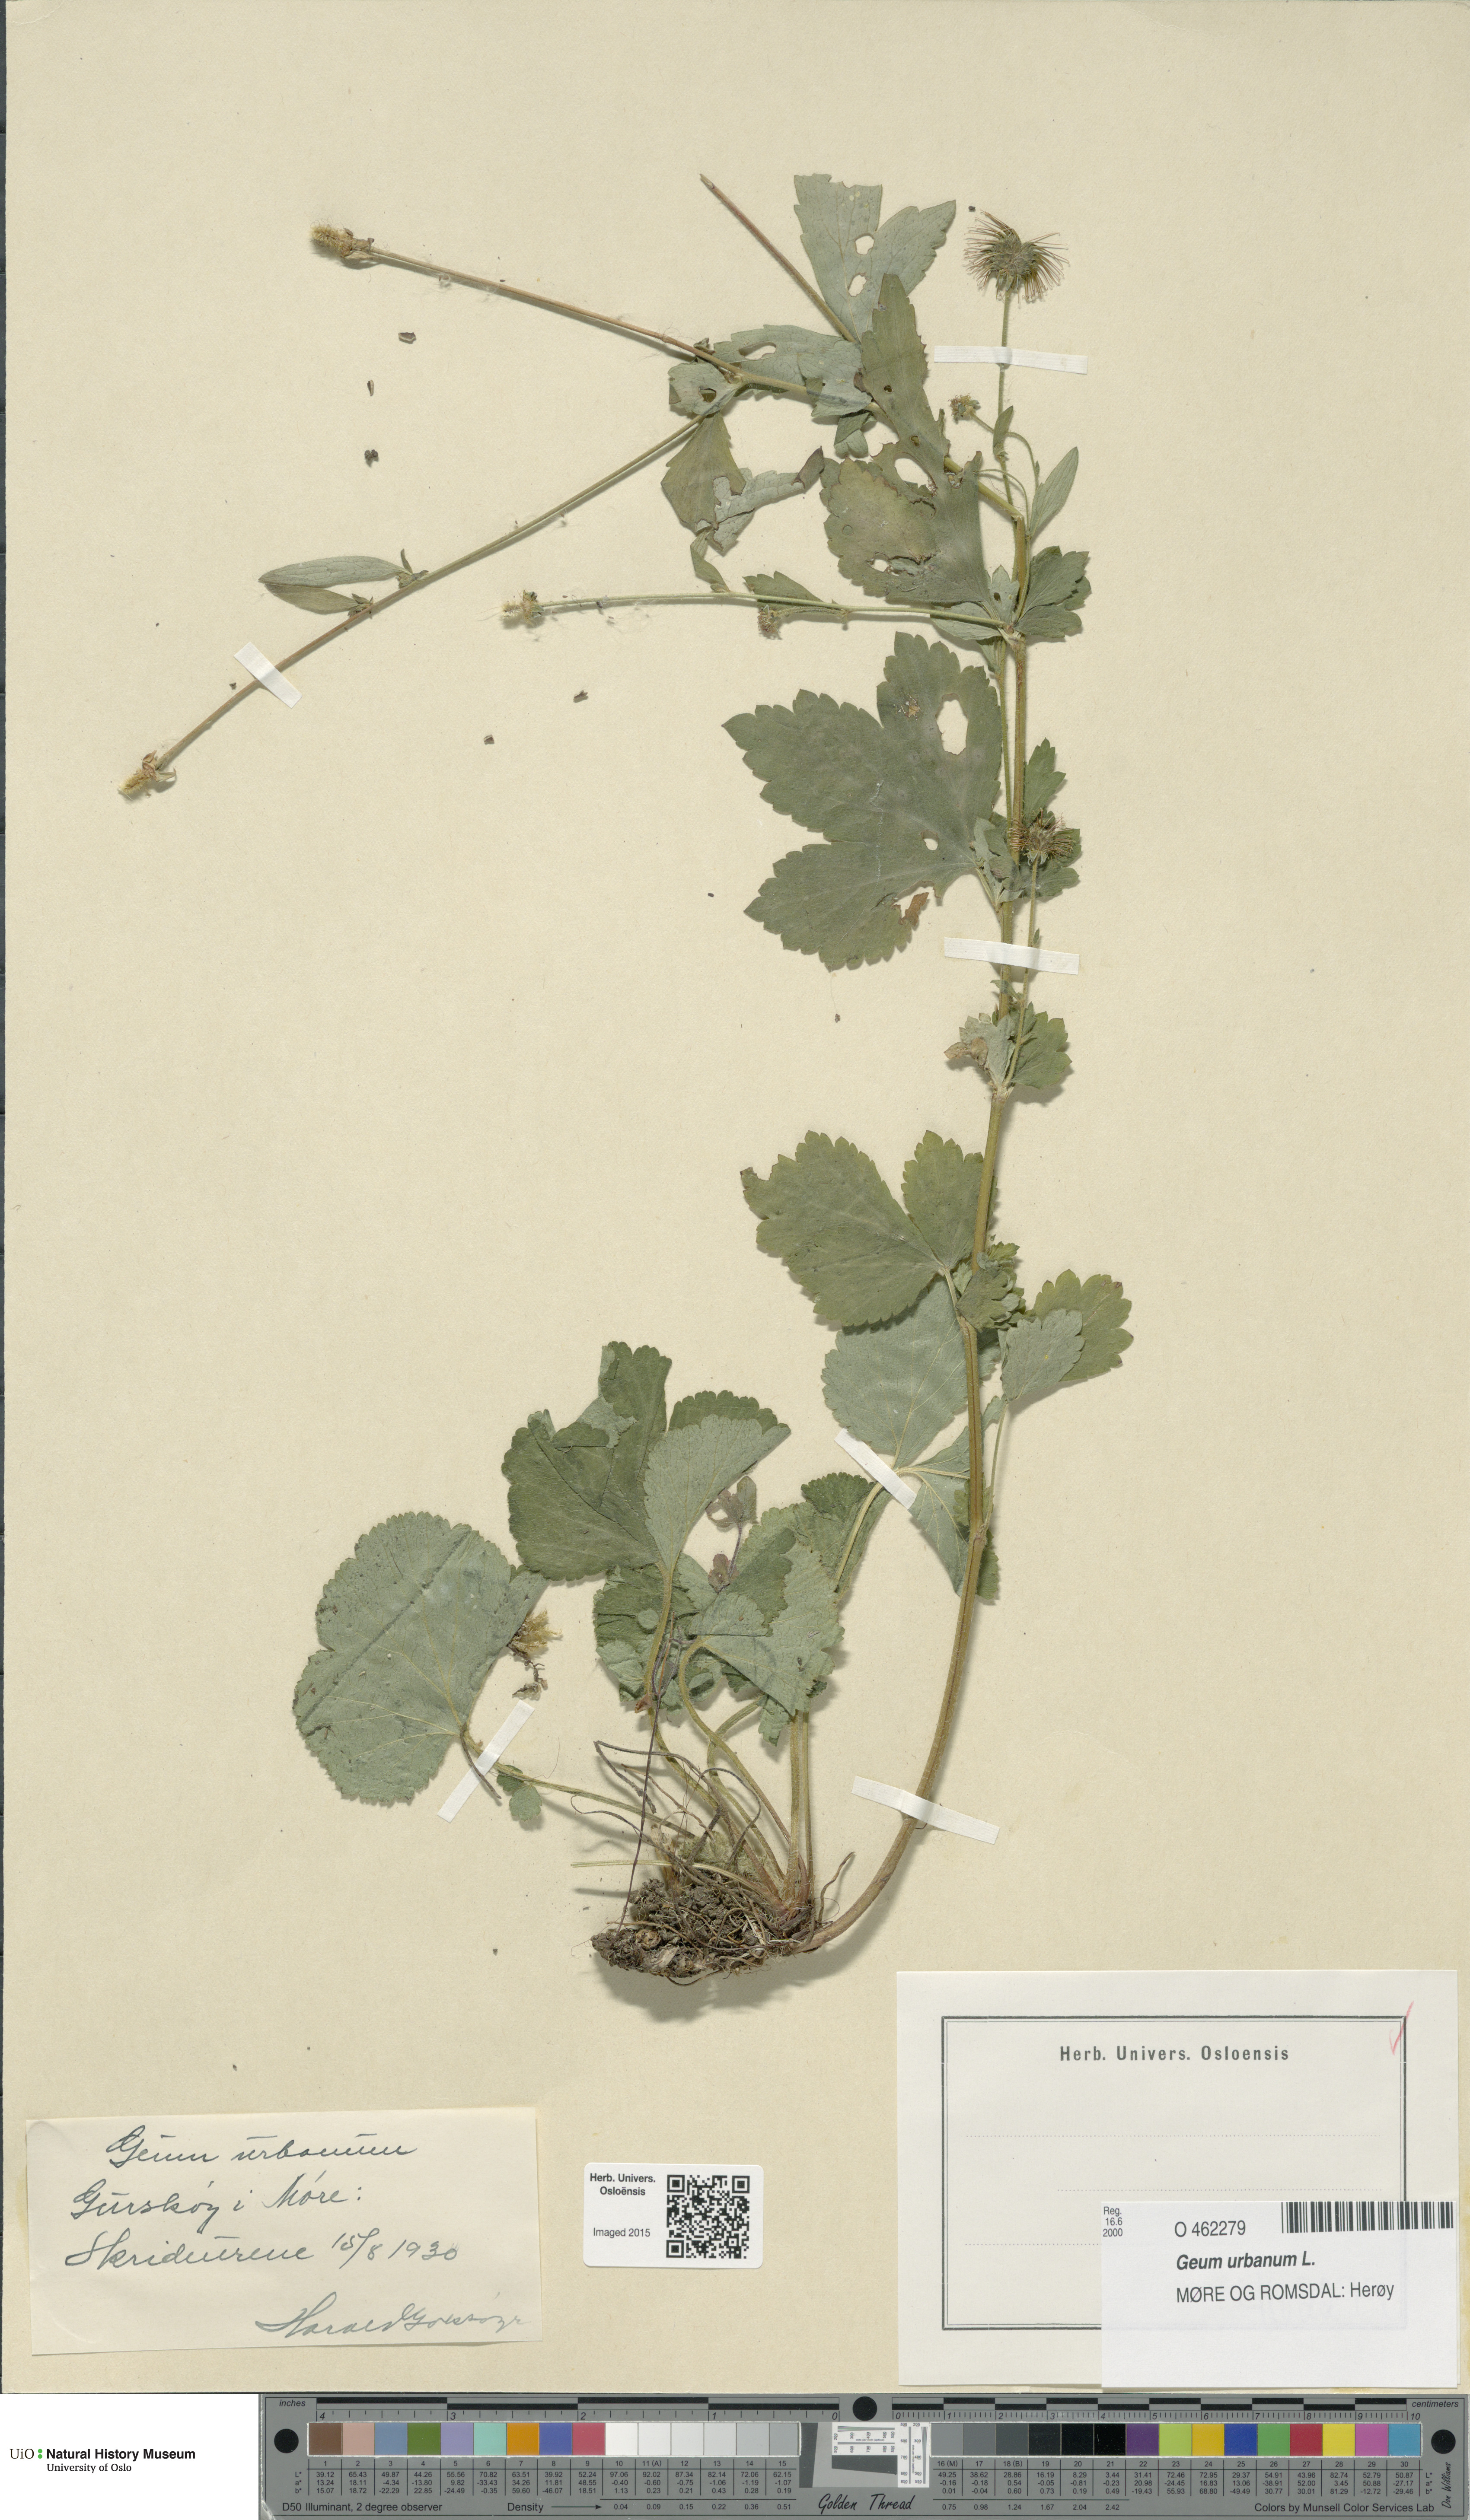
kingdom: Plantae
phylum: Tracheophyta
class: Magnoliopsida
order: Rosales
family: Rosaceae
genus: Geum
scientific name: Geum urbanum
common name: Wood avens
